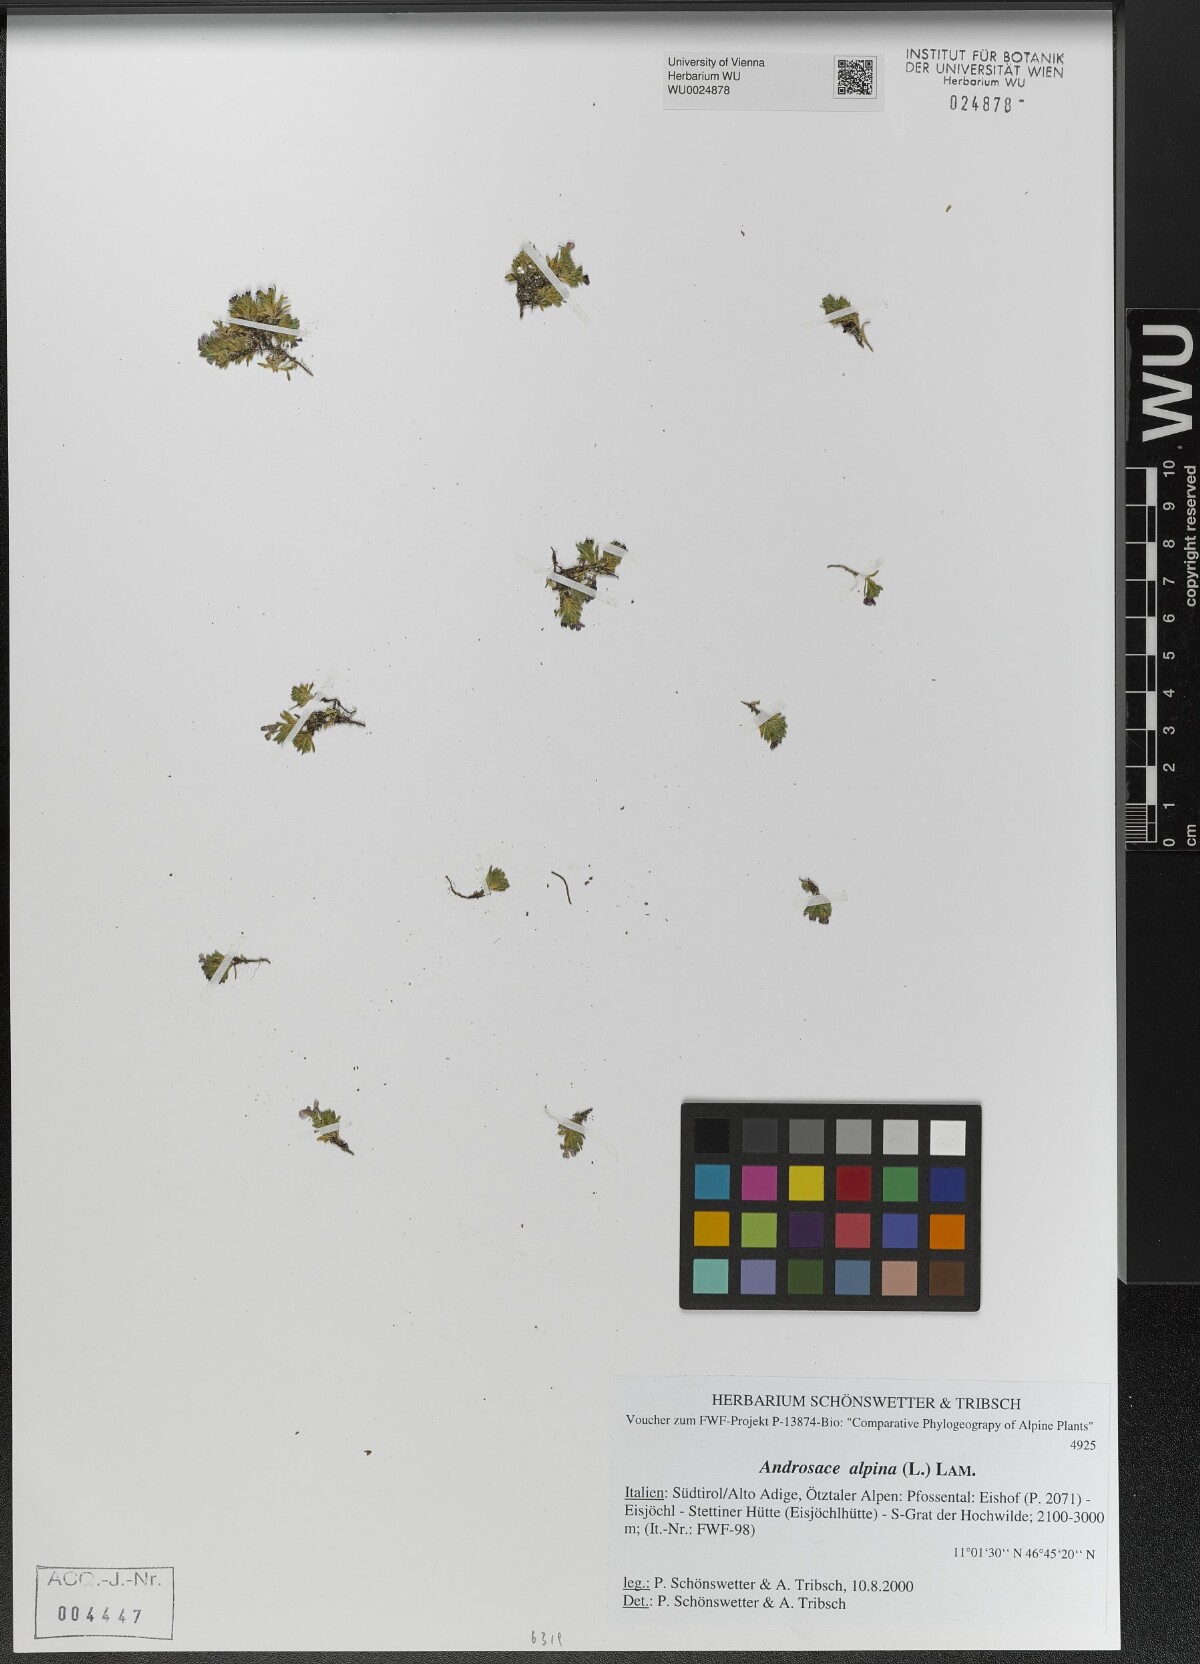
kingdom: Plantae
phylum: Tracheophyta
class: Magnoliopsida
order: Ericales
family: Primulaceae
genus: Androsace
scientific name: Androsace alpina
